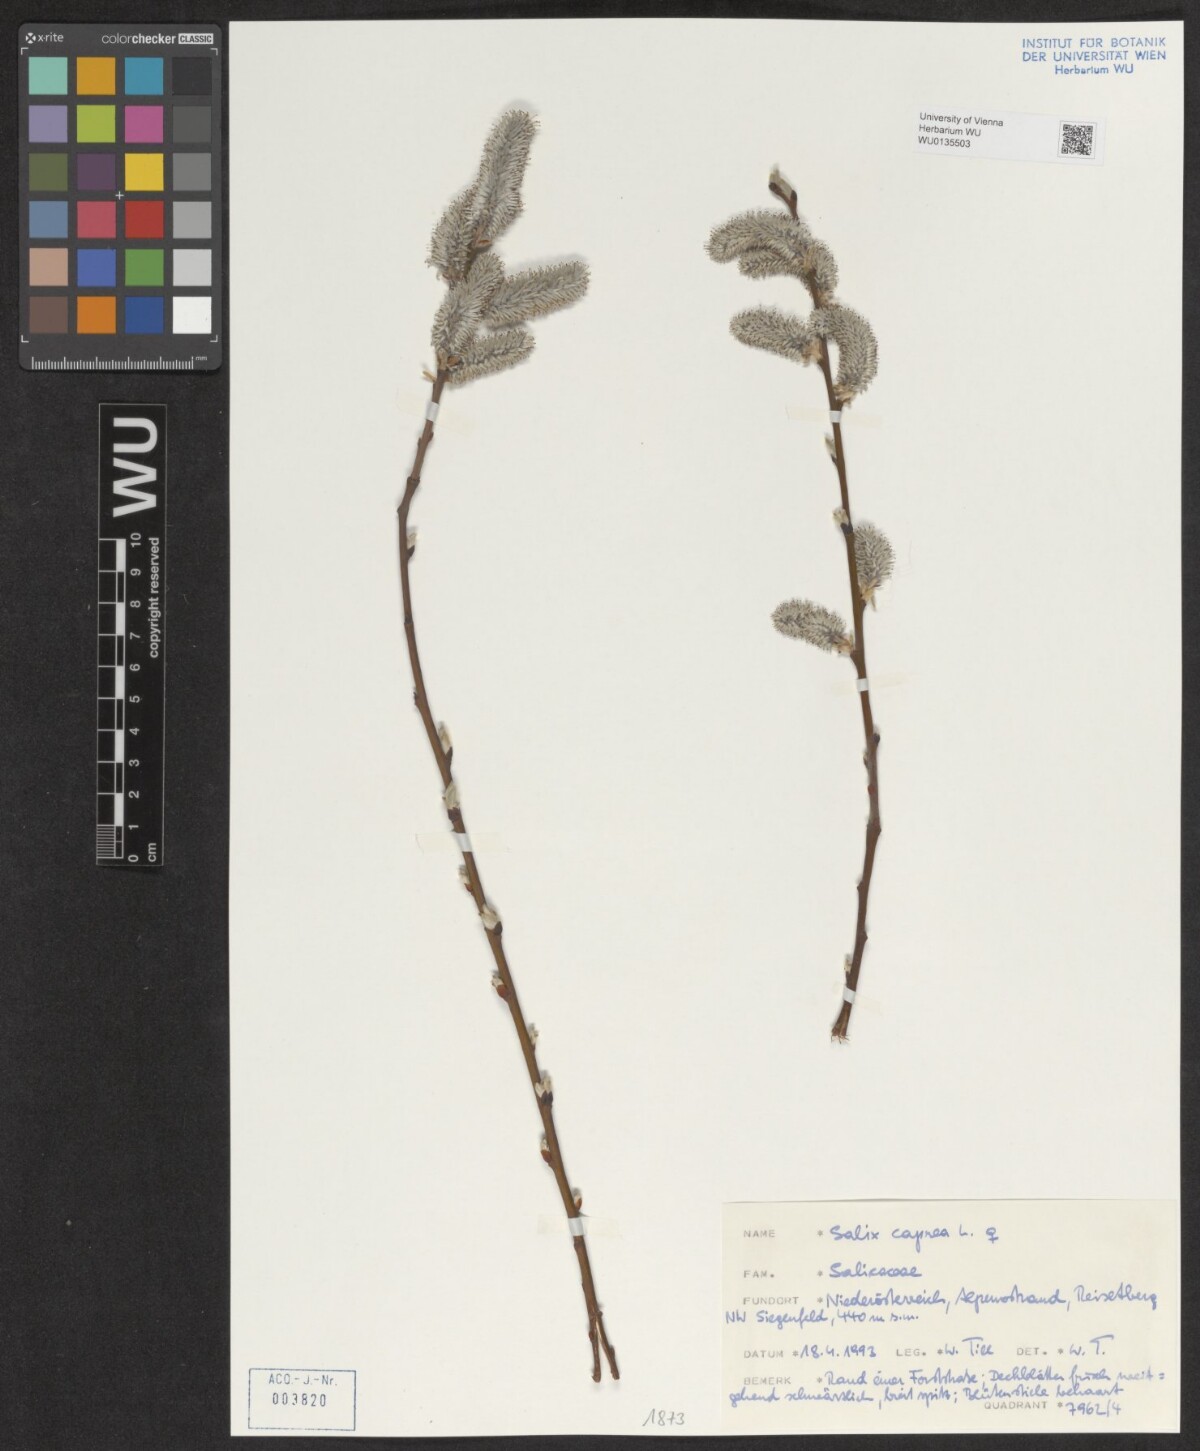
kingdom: Plantae
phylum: Tracheophyta
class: Magnoliopsida
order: Malpighiales
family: Salicaceae
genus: Salix
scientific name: Salix caprea
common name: Goat willow
